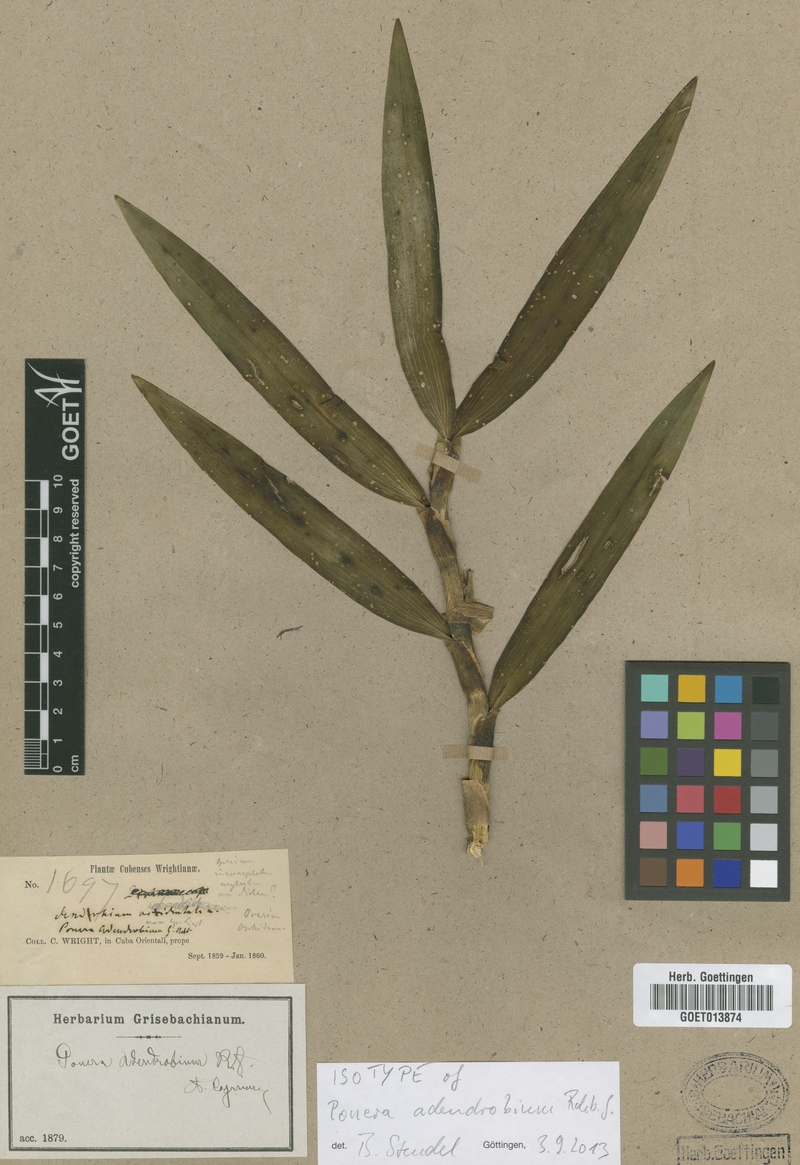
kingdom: Plantae
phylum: Tracheophyta
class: Liliopsida
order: Asparagales
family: Orchidaceae
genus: Maxillaria
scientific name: Maxillaria adendrobium
